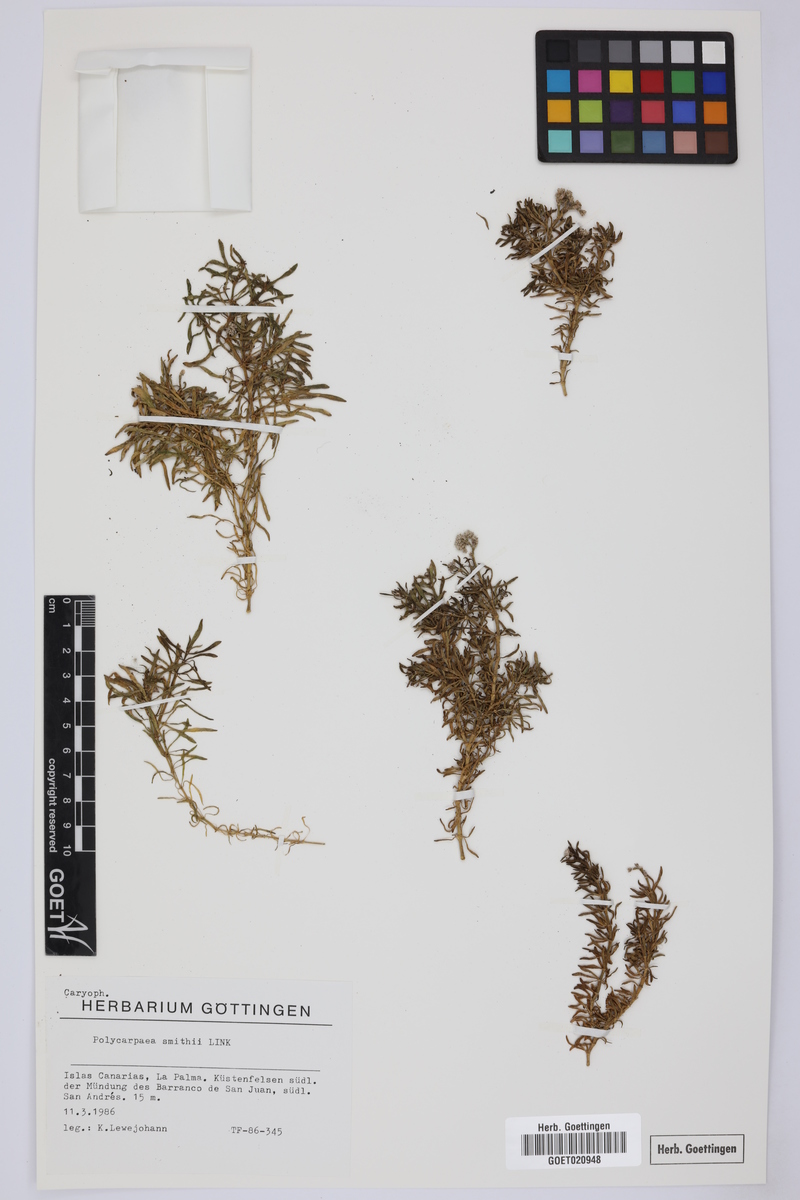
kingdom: Plantae
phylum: Tracheophyta
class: Magnoliopsida
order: Caryophyllales
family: Caryophyllaceae
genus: Polycarpaea
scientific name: Polycarpaea smithii
